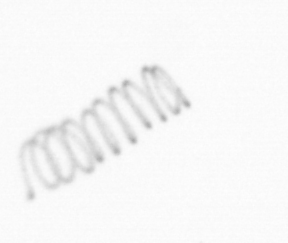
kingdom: Chromista
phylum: Ochrophyta
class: Bacillariophyceae
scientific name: Bacillariophyceae
